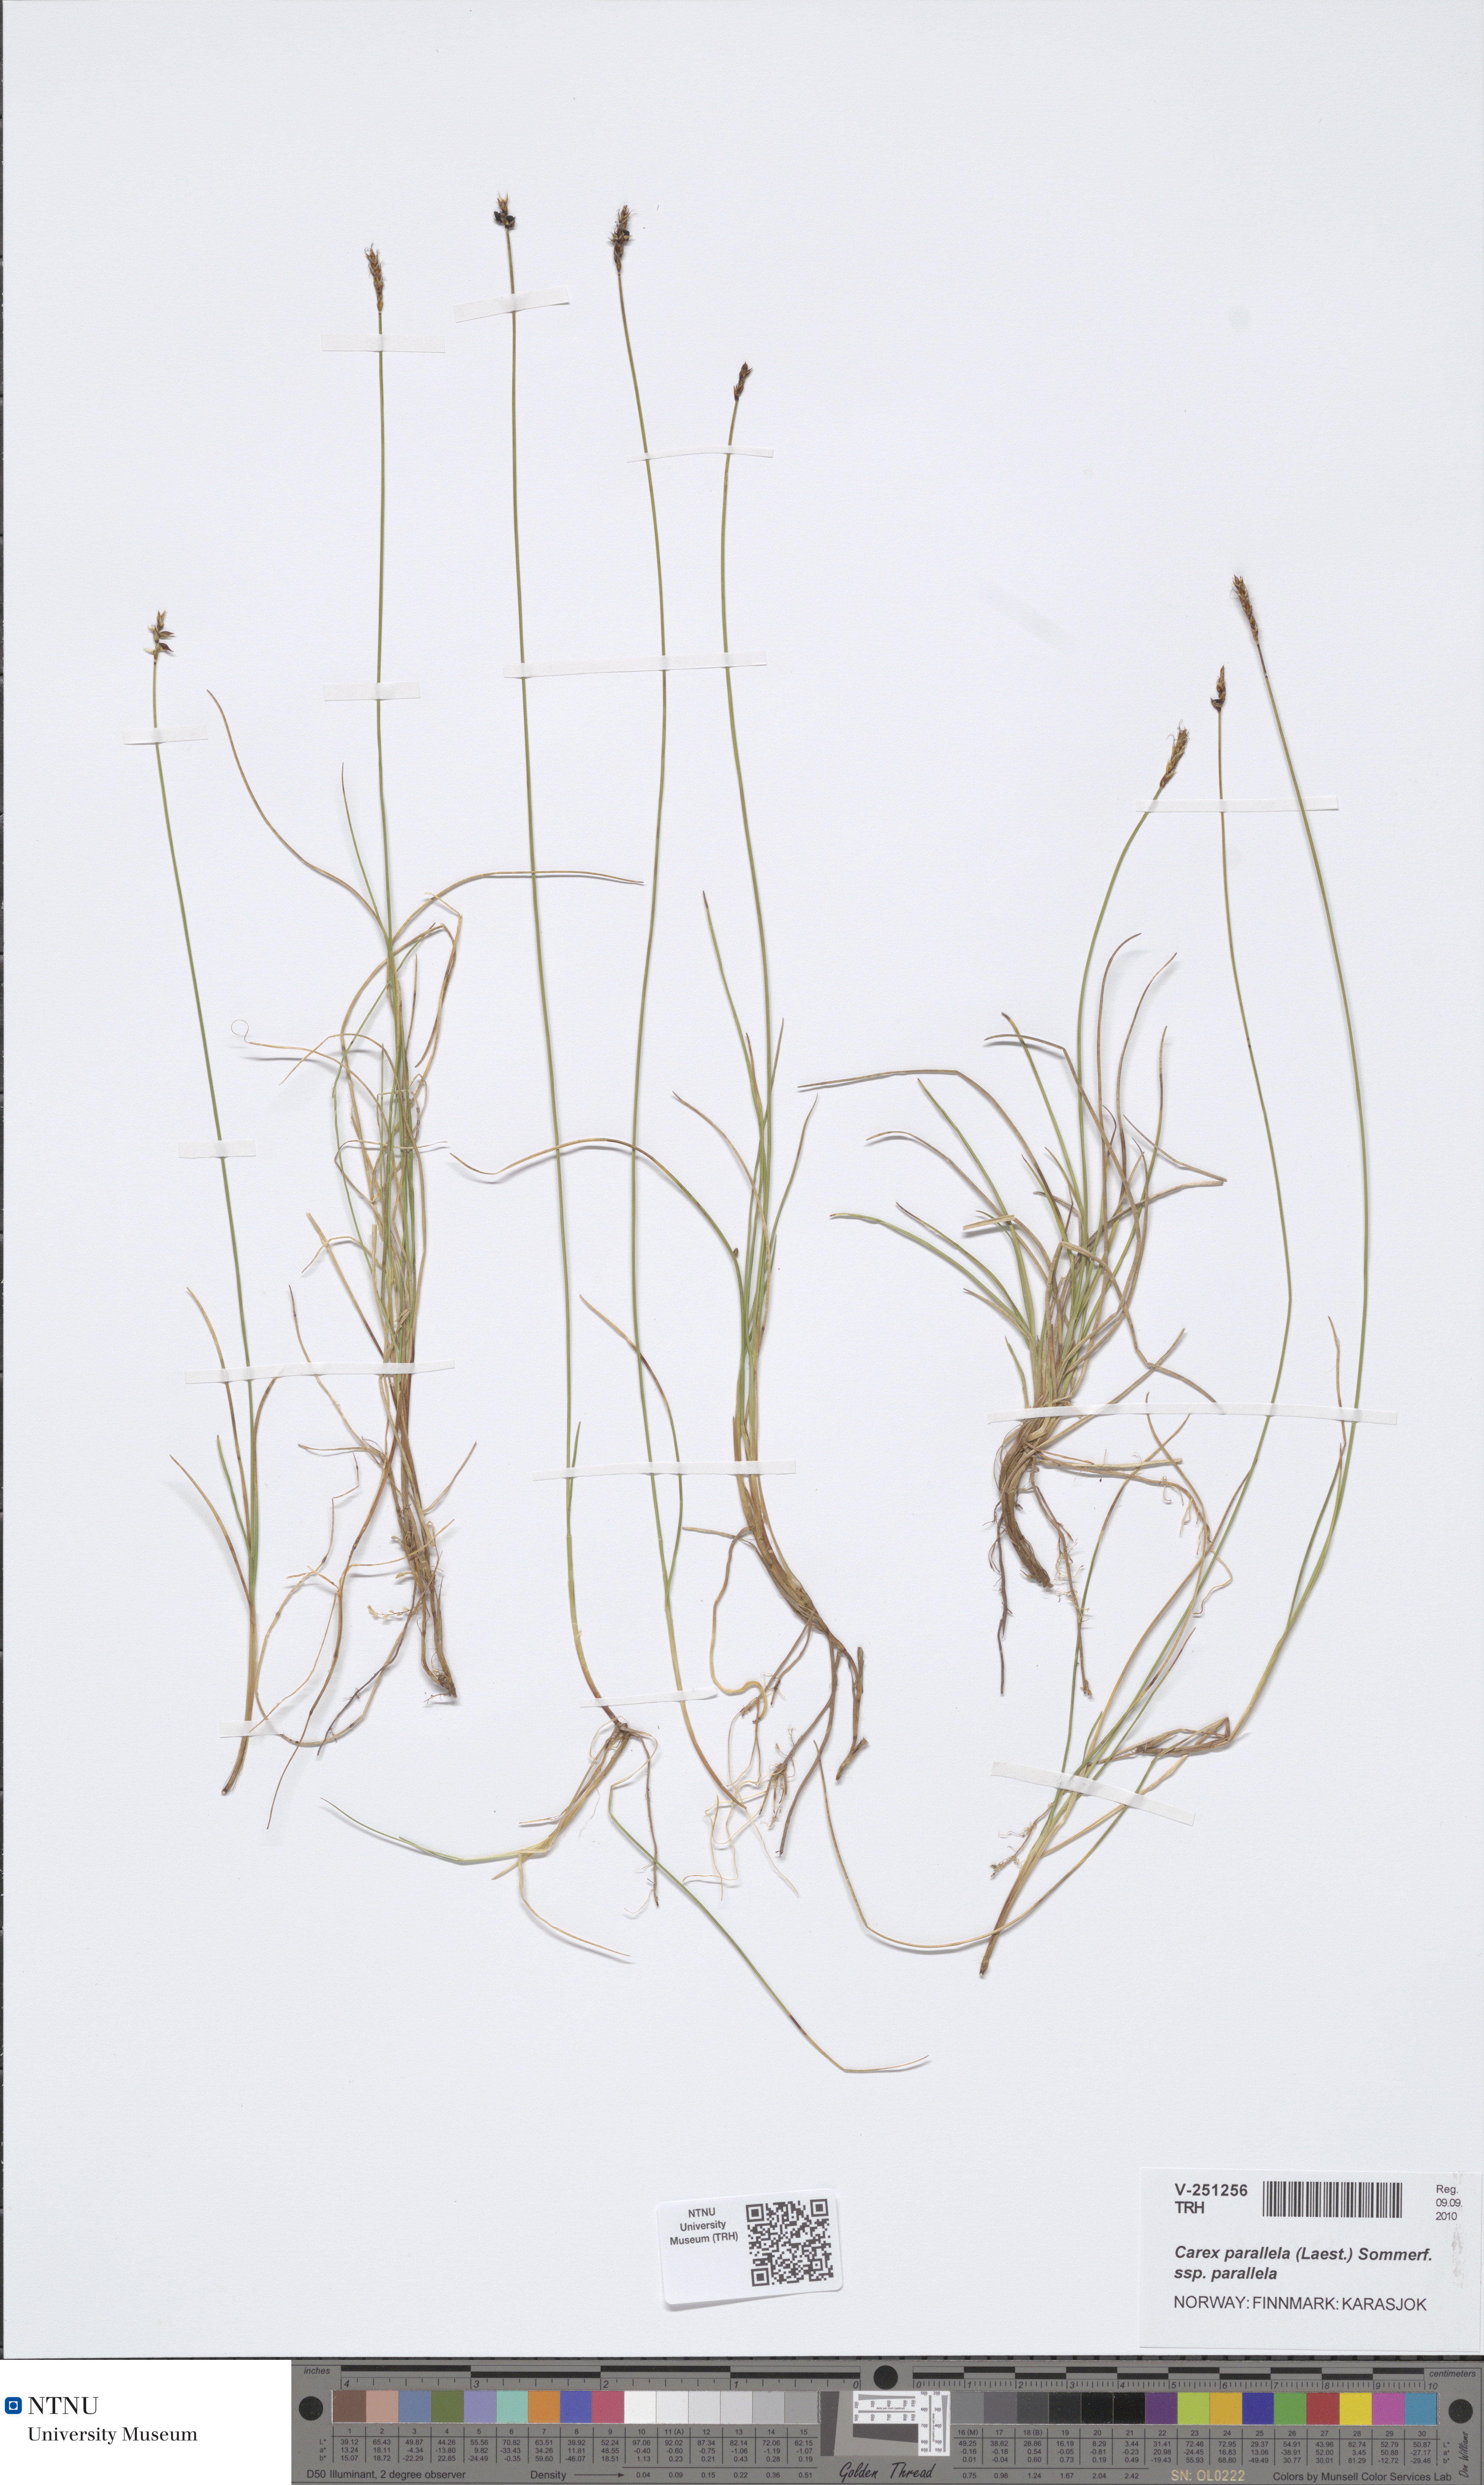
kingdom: Plantae
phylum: Tracheophyta
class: Liliopsida
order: Poales
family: Cyperaceae
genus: Carex
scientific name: Carex parallela
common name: Parallel sedge
